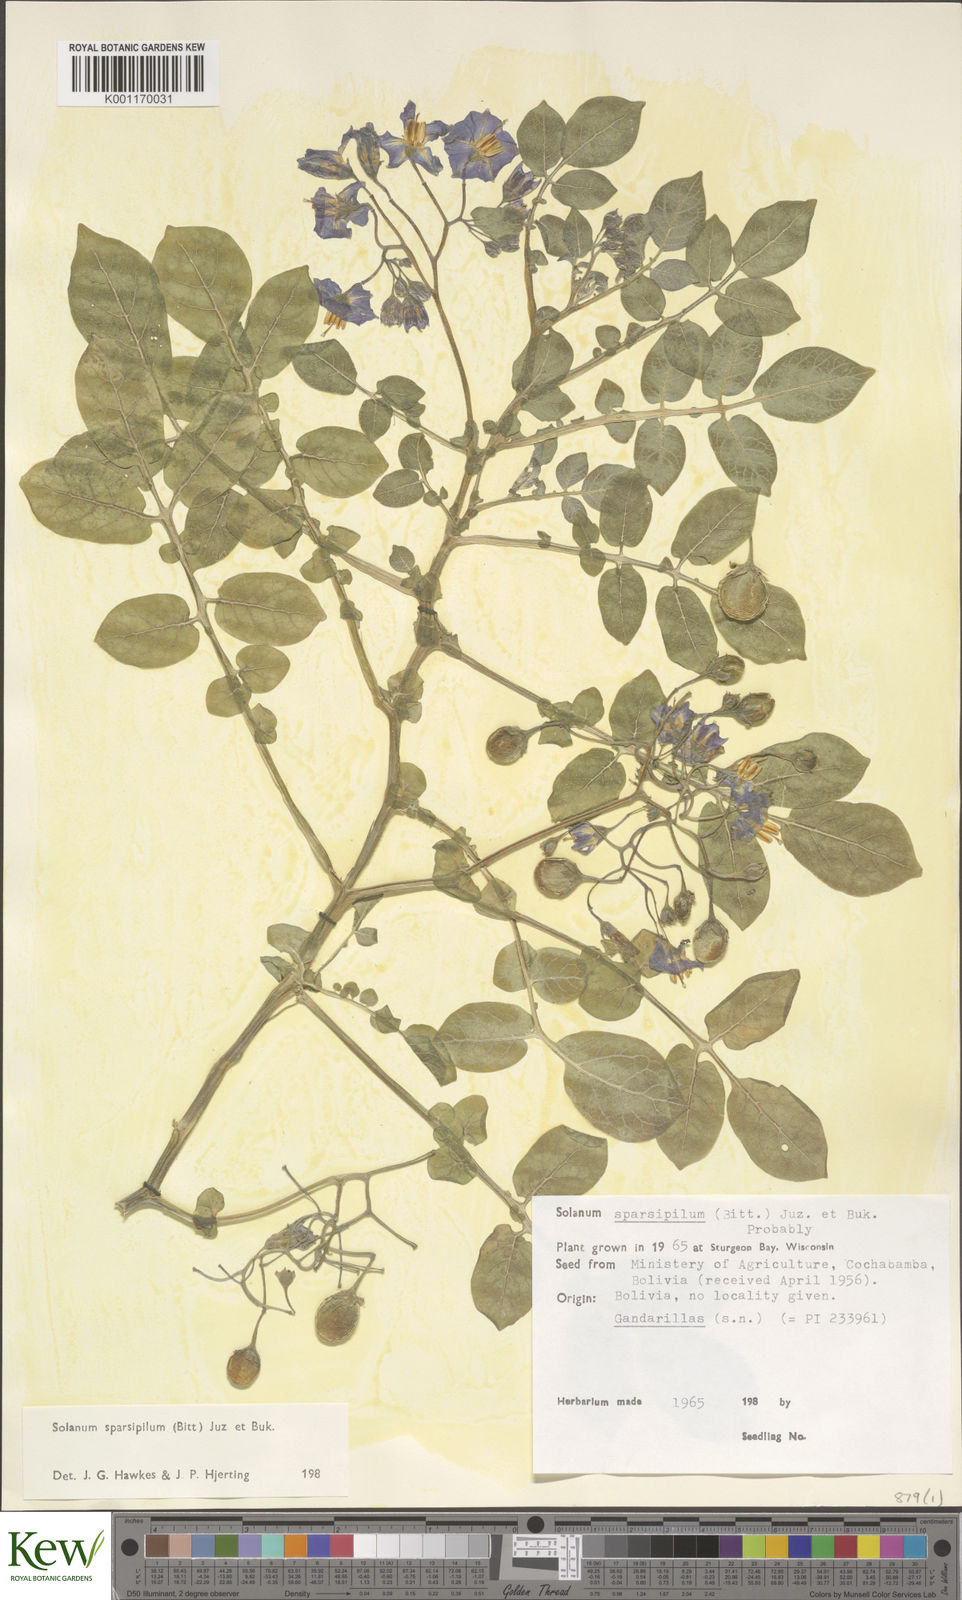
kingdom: Plantae
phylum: Tracheophyta
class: Magnoliopsida
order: Solanales
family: Solanaceae
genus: Solanum
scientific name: Solanum brevicaule
